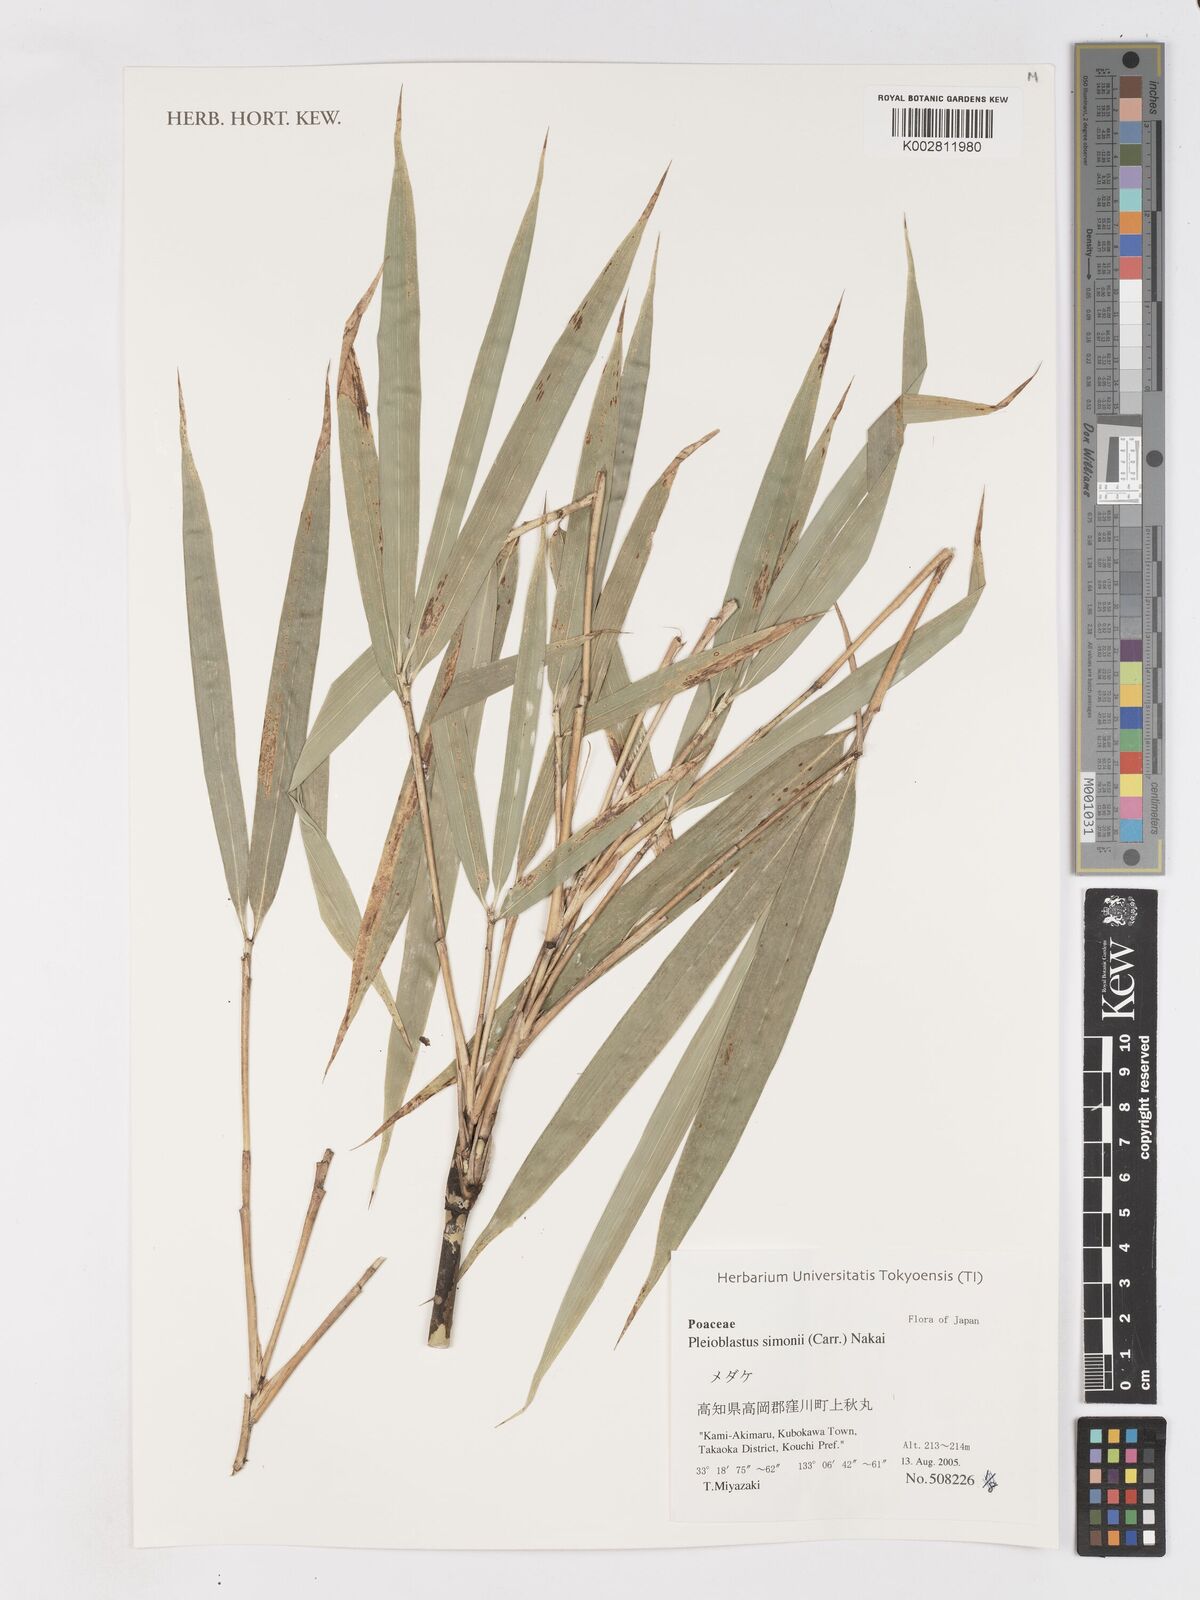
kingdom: Plantae
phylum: Tracheophyta
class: Liliopsida
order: Poales
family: Poaceae
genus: Pleioblastus
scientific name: Pleioblastus simonii
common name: Simon bamboo
